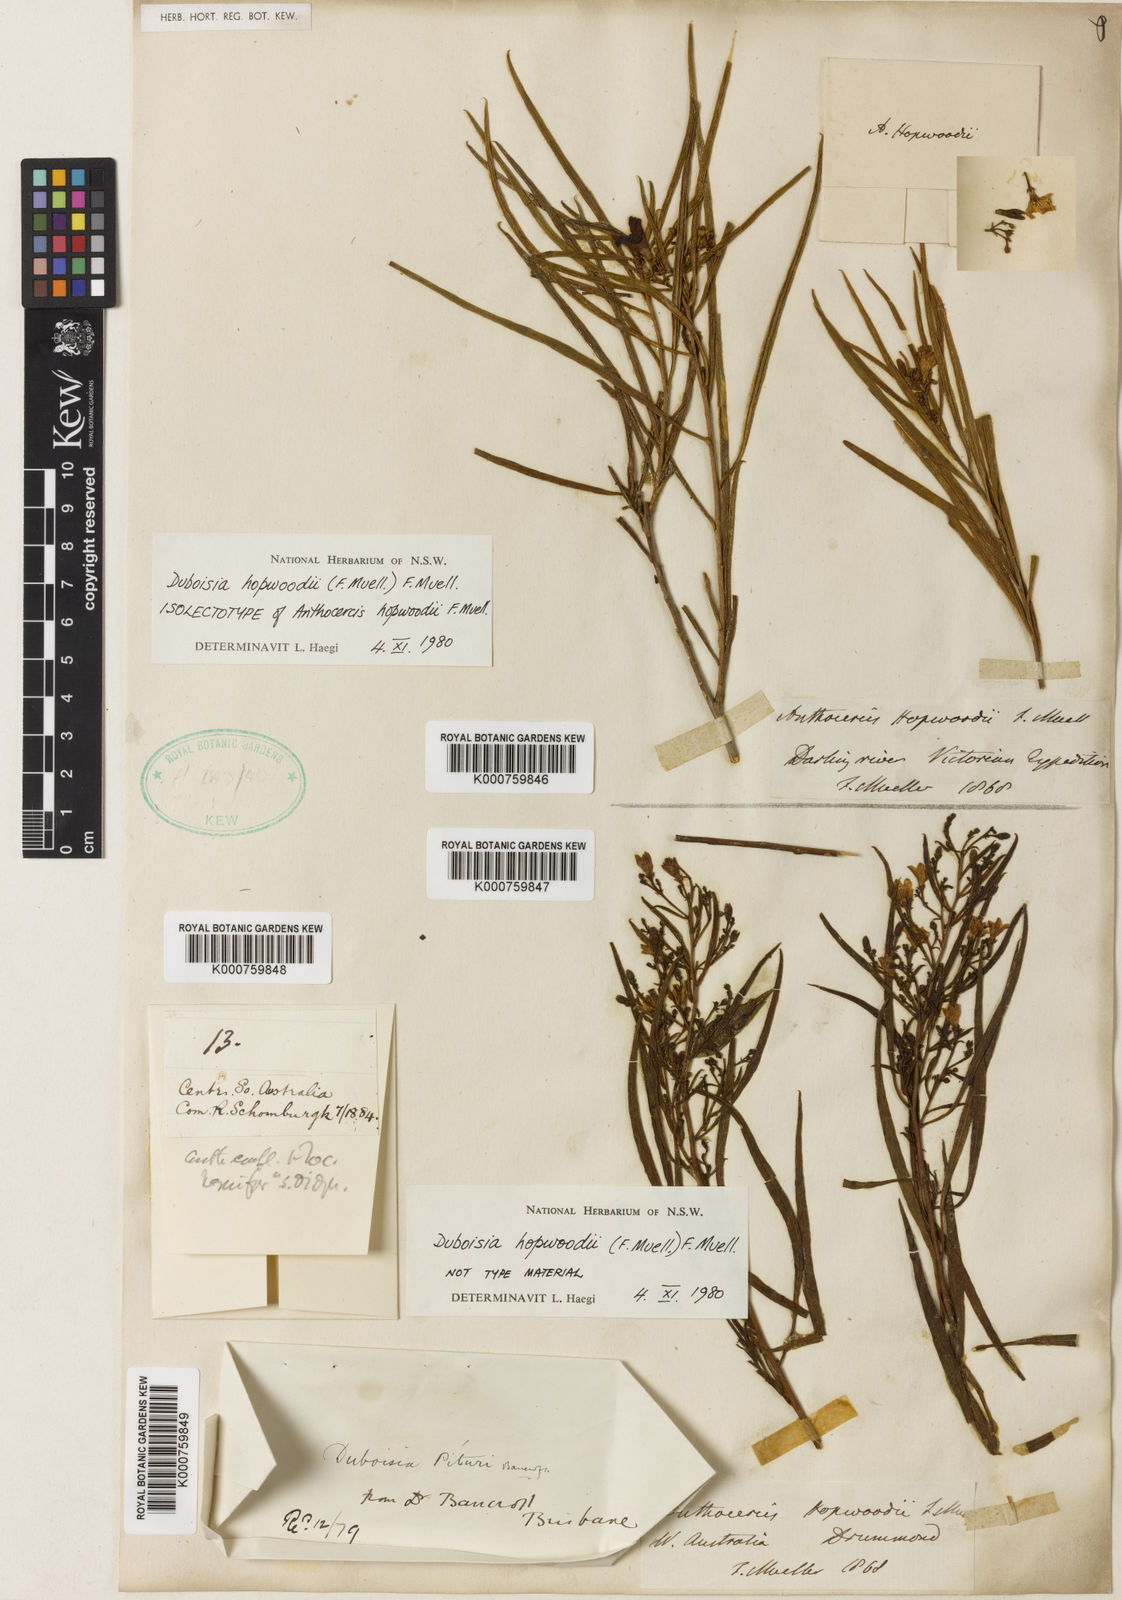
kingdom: Plantae
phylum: Tracheophyta
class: Magnoliopsida
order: Solanales
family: Solanaceae
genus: Duboisia
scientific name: Duboisia hopwoodii
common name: Pituri
